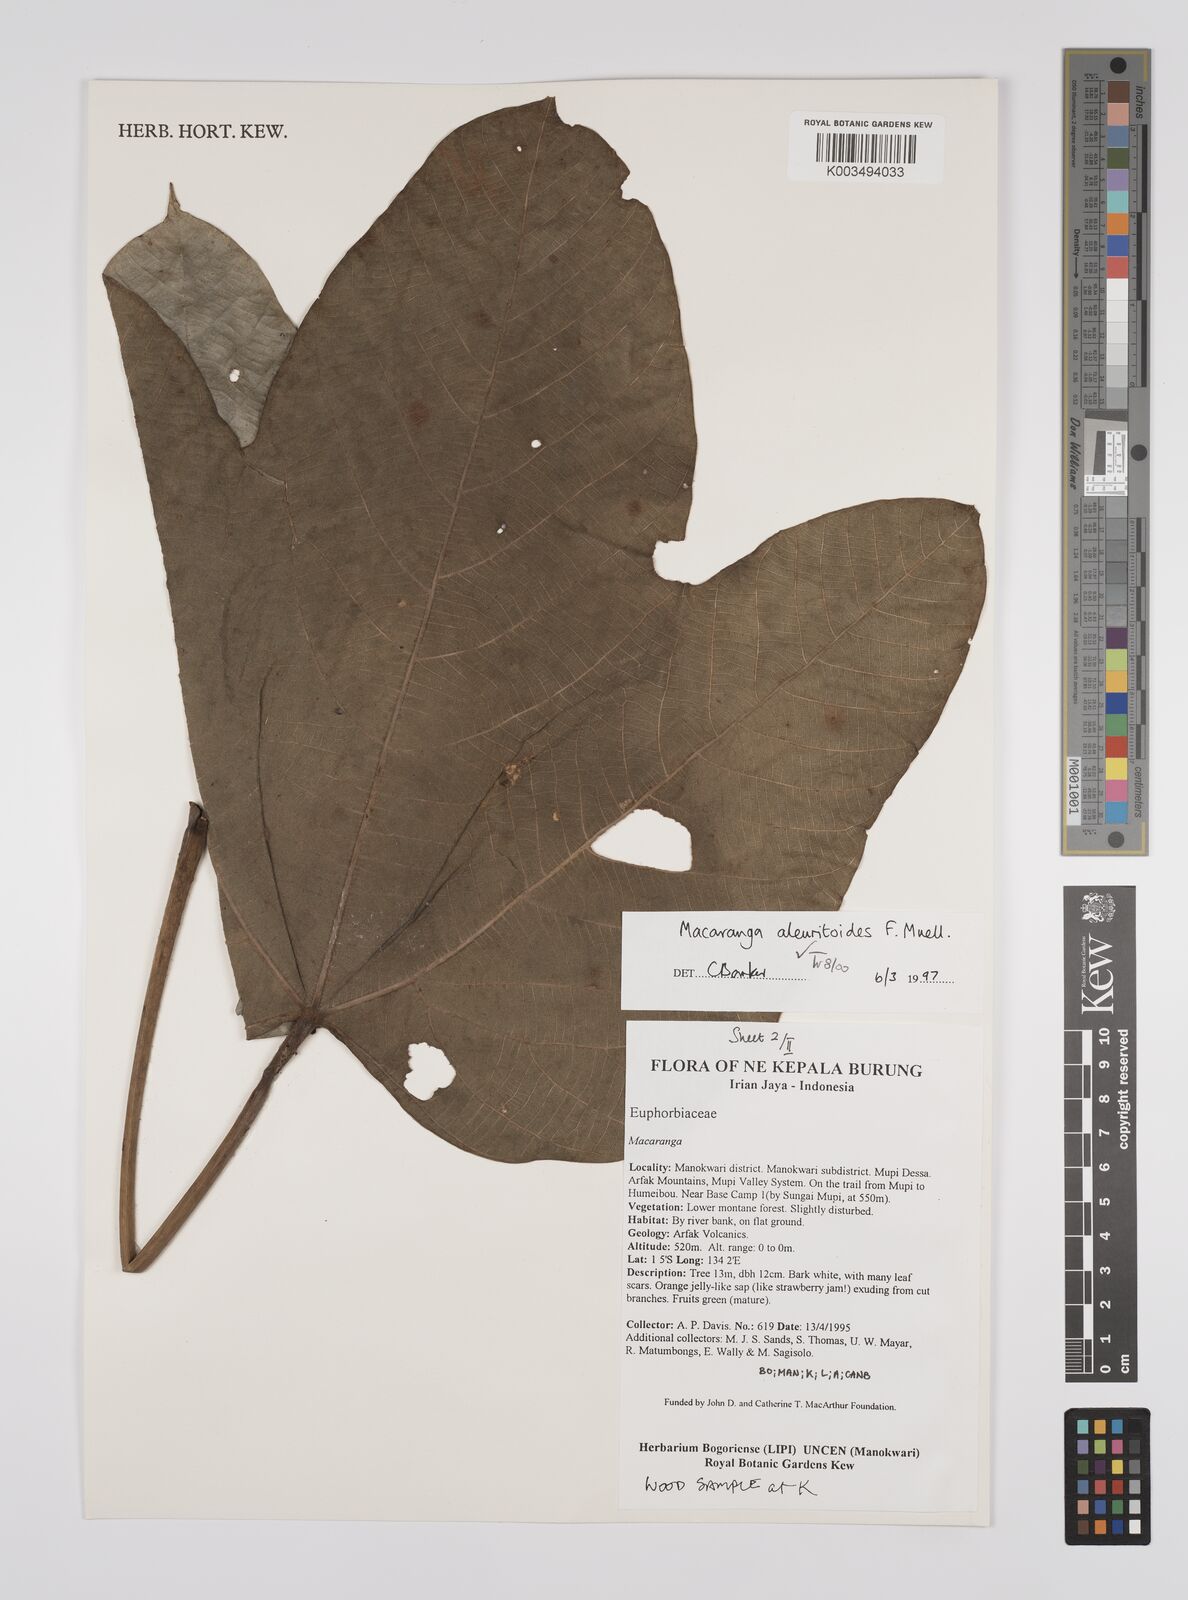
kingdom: Plantae
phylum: Tracheophyta
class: Magnoliopsida
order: Malpighiales
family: Euphorbiaceae
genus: Macaranga
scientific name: Macaranga aleuritoides
